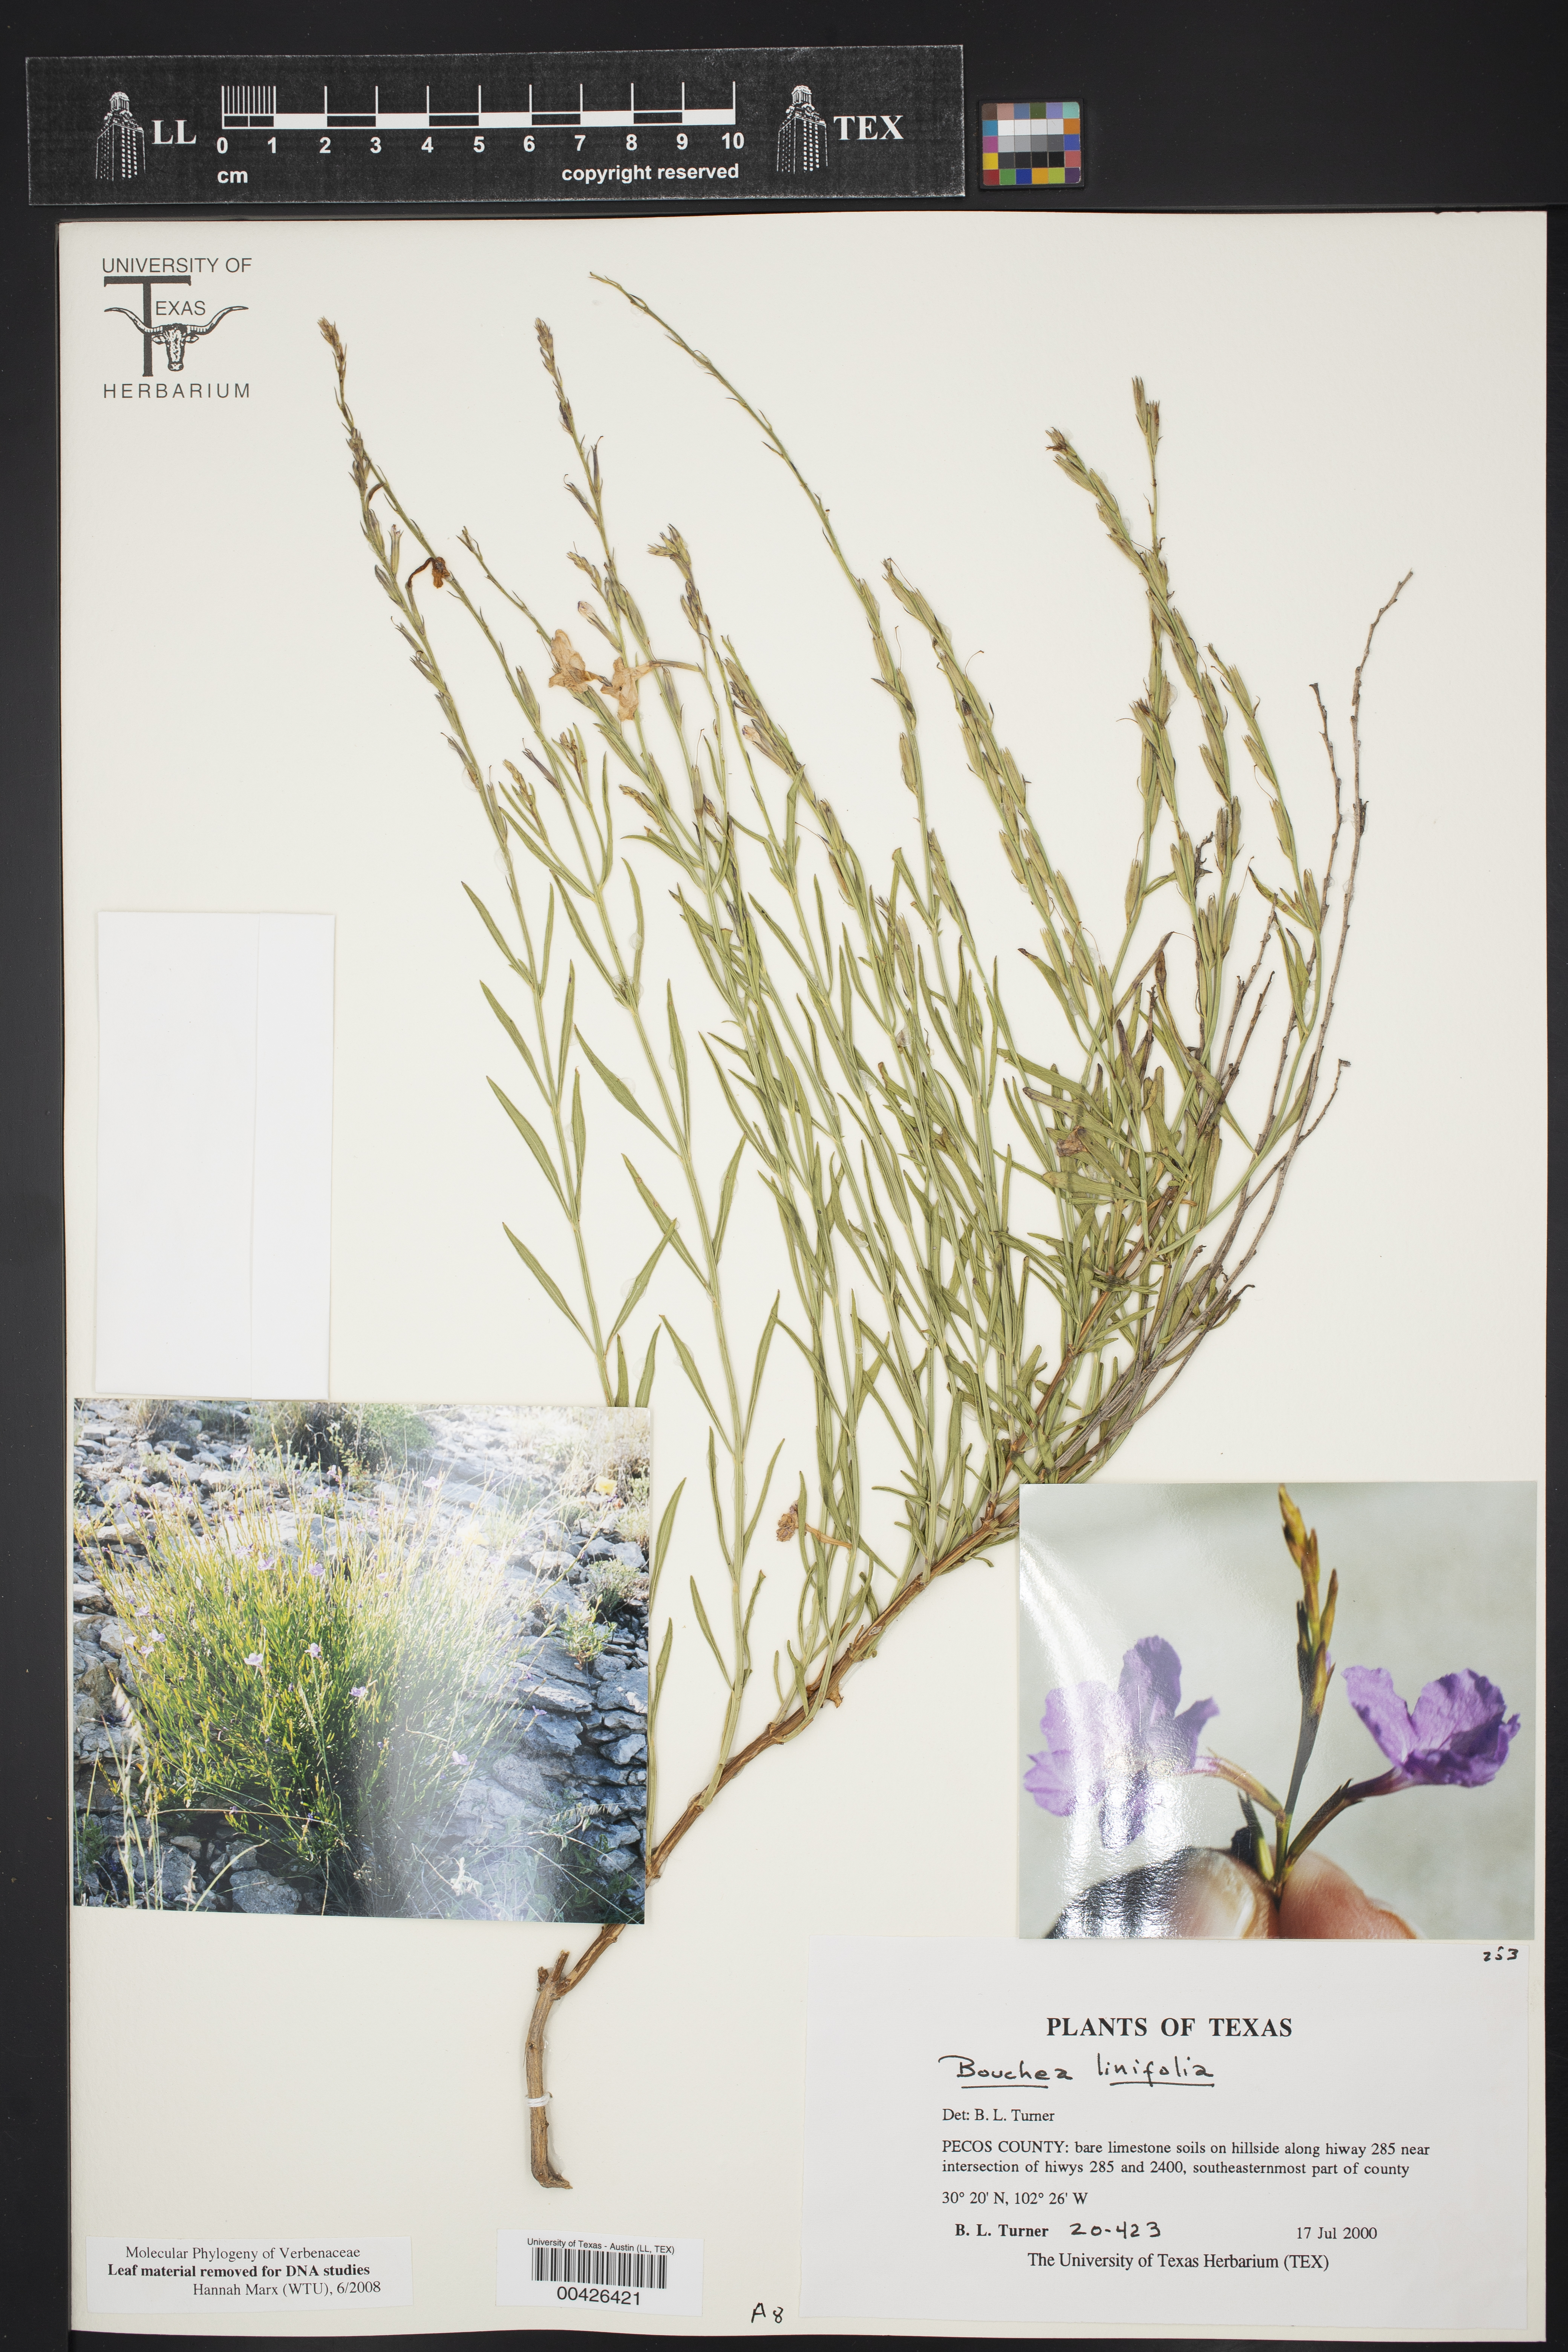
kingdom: Plantae
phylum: Tracheophyta
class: Magnoliopsida
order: Lamiales
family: Verbenaceae
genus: Bouchea
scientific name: Bouchea linifolia
